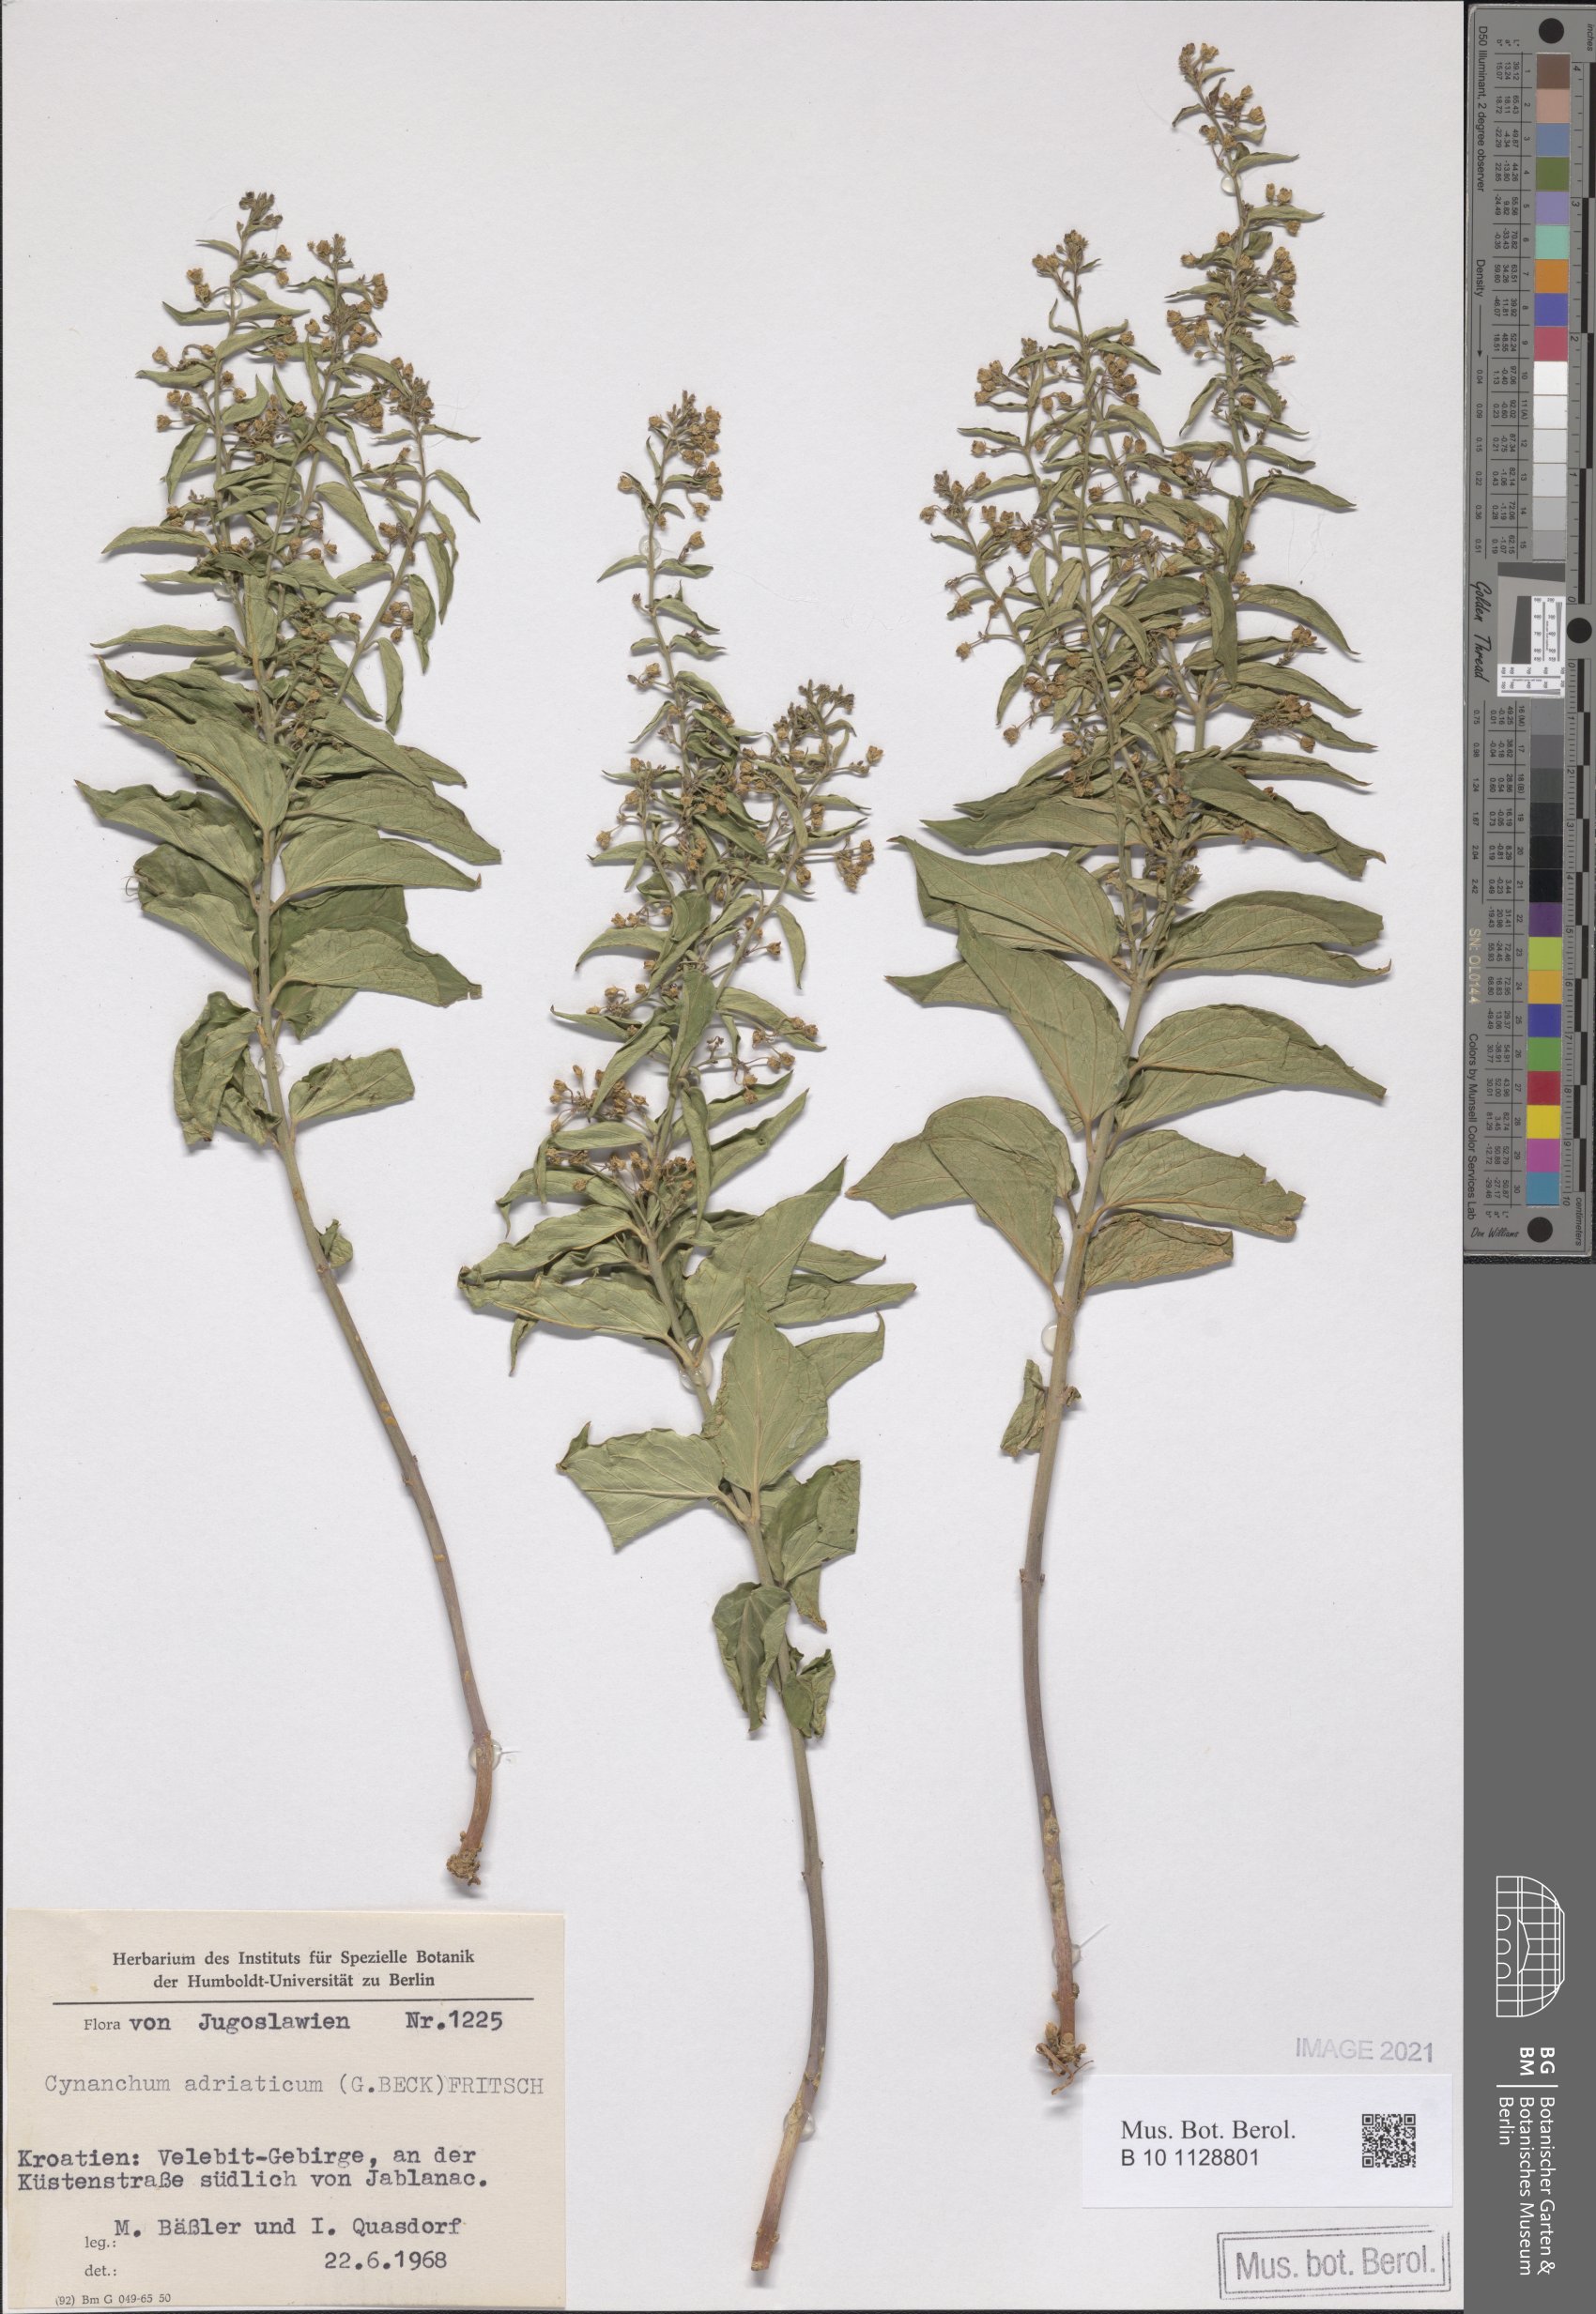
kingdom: Plantae
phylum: Tracheophyta
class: Magnoliopsida
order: Gentianales
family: Apocynaceae
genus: Vincetoxicum
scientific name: Vincetoxicum hirundinaria
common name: White swallowwort
